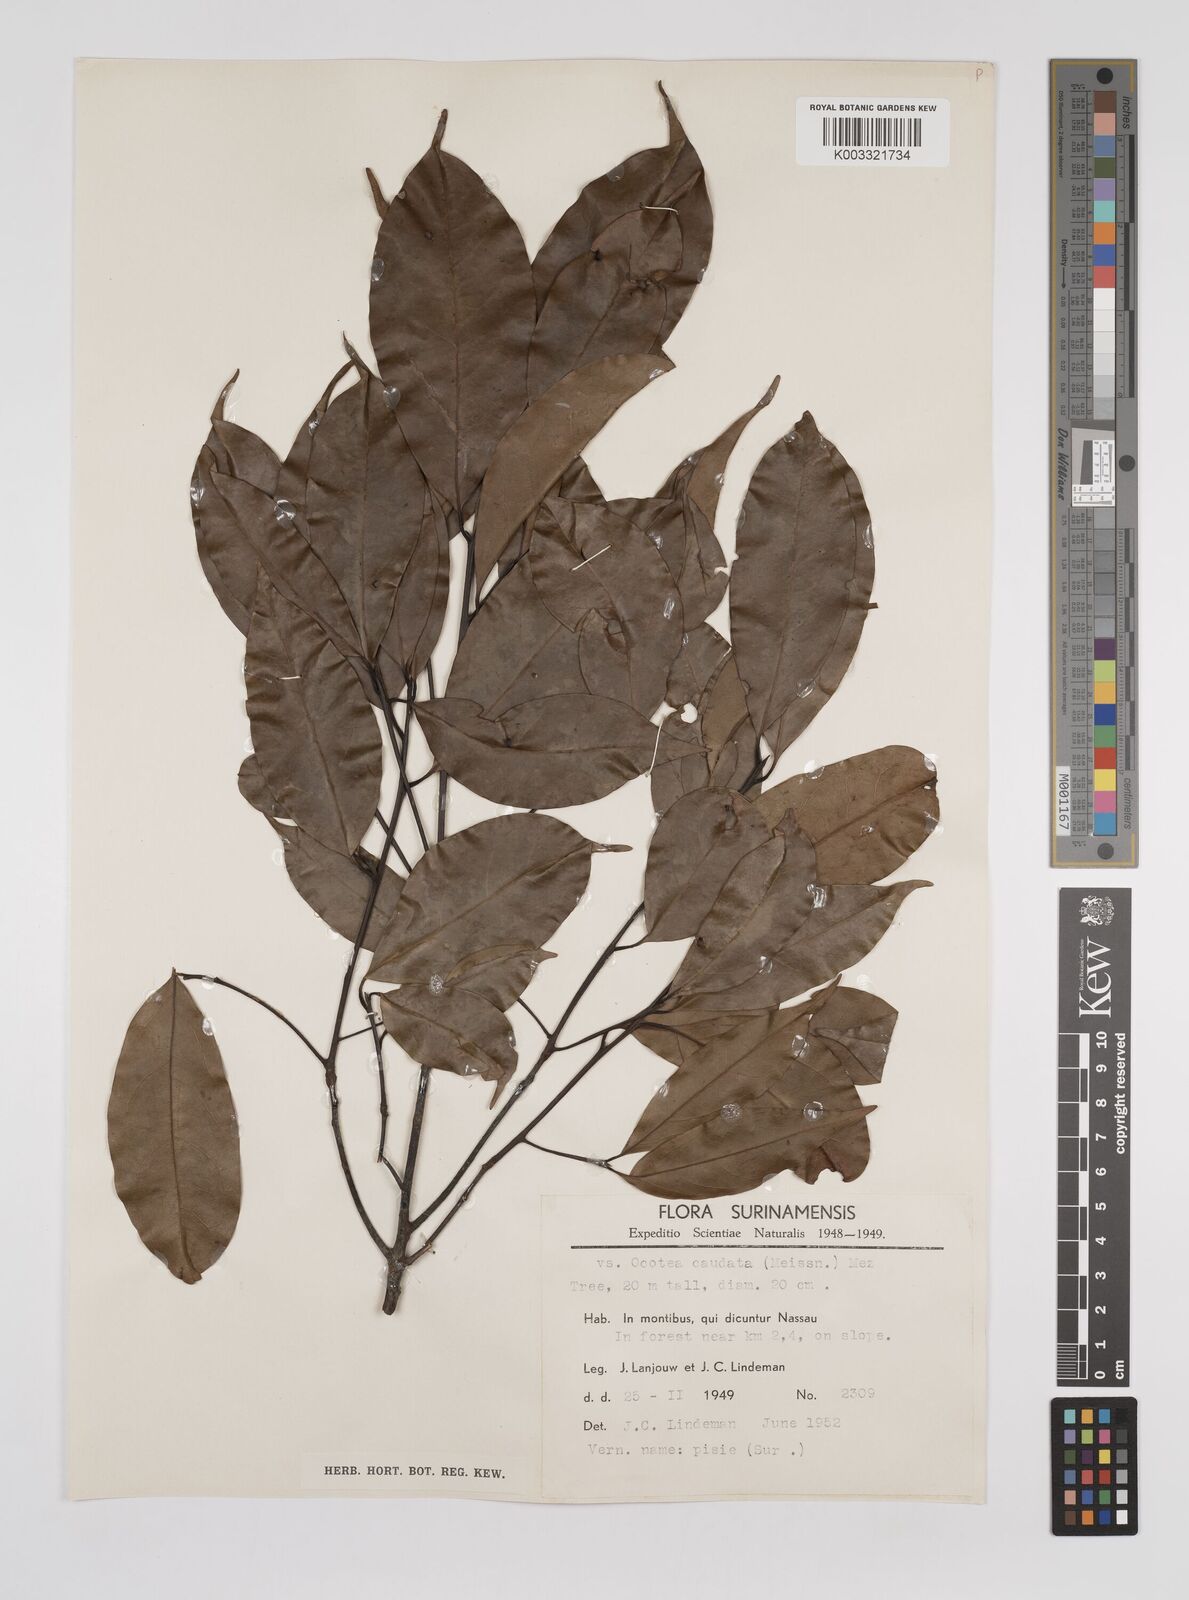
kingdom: Plantae
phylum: Tracheophyta
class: Magnoliopsida
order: Laurales
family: Lauraceae
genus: Ocotea
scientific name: Ocotea leptobotra
